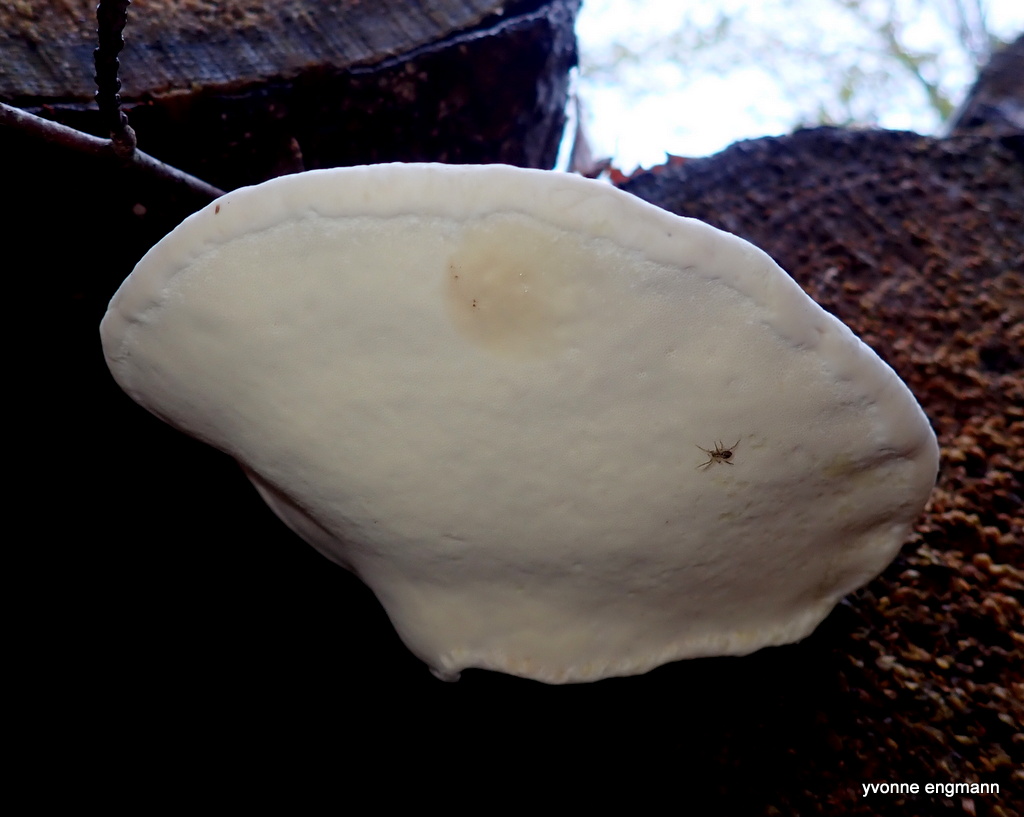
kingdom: Fungi
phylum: Basidiomycota
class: Agaricomycetes
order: Polyporales
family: Fomitopsidaceae
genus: Fomitopsis
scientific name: Fomitopsis pinicola
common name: randbæltet hovporesvamp
